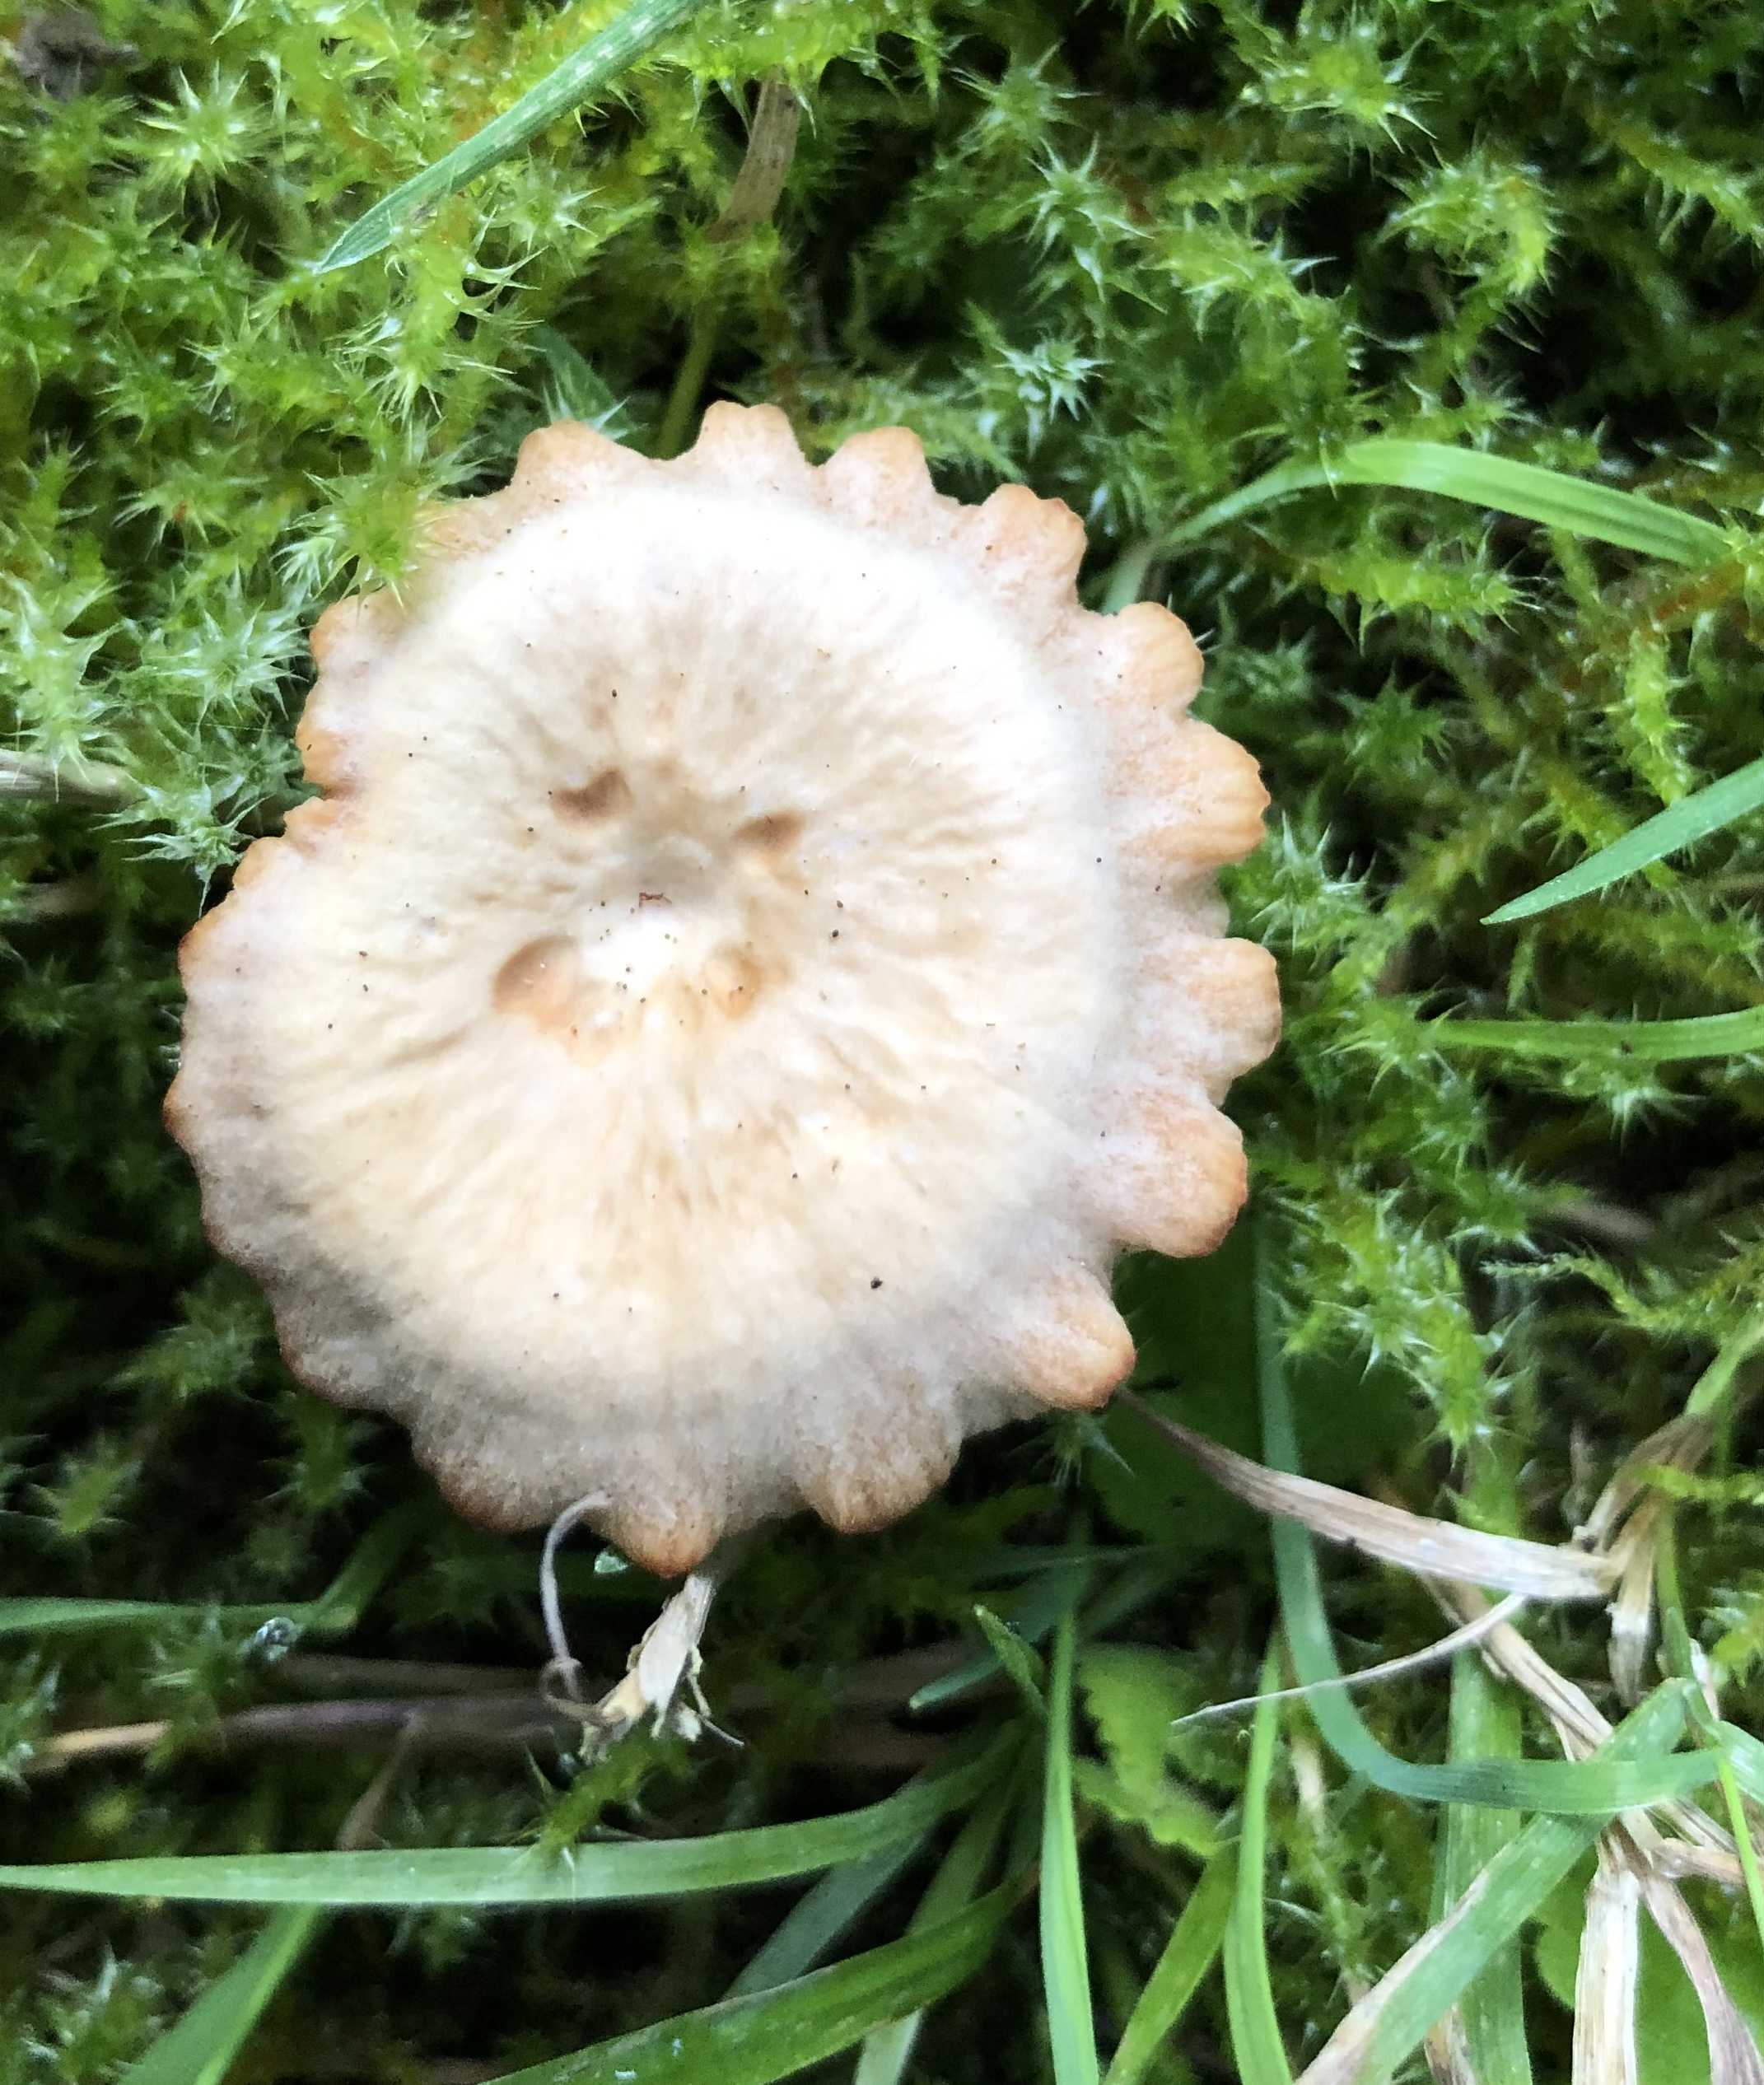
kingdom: Fungi
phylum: Basidiomycota
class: Agaricomycetes
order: Agaricales
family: Hydnangiaceae
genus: Laccaria
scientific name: Laccaria laccata
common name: rød ametysthat
